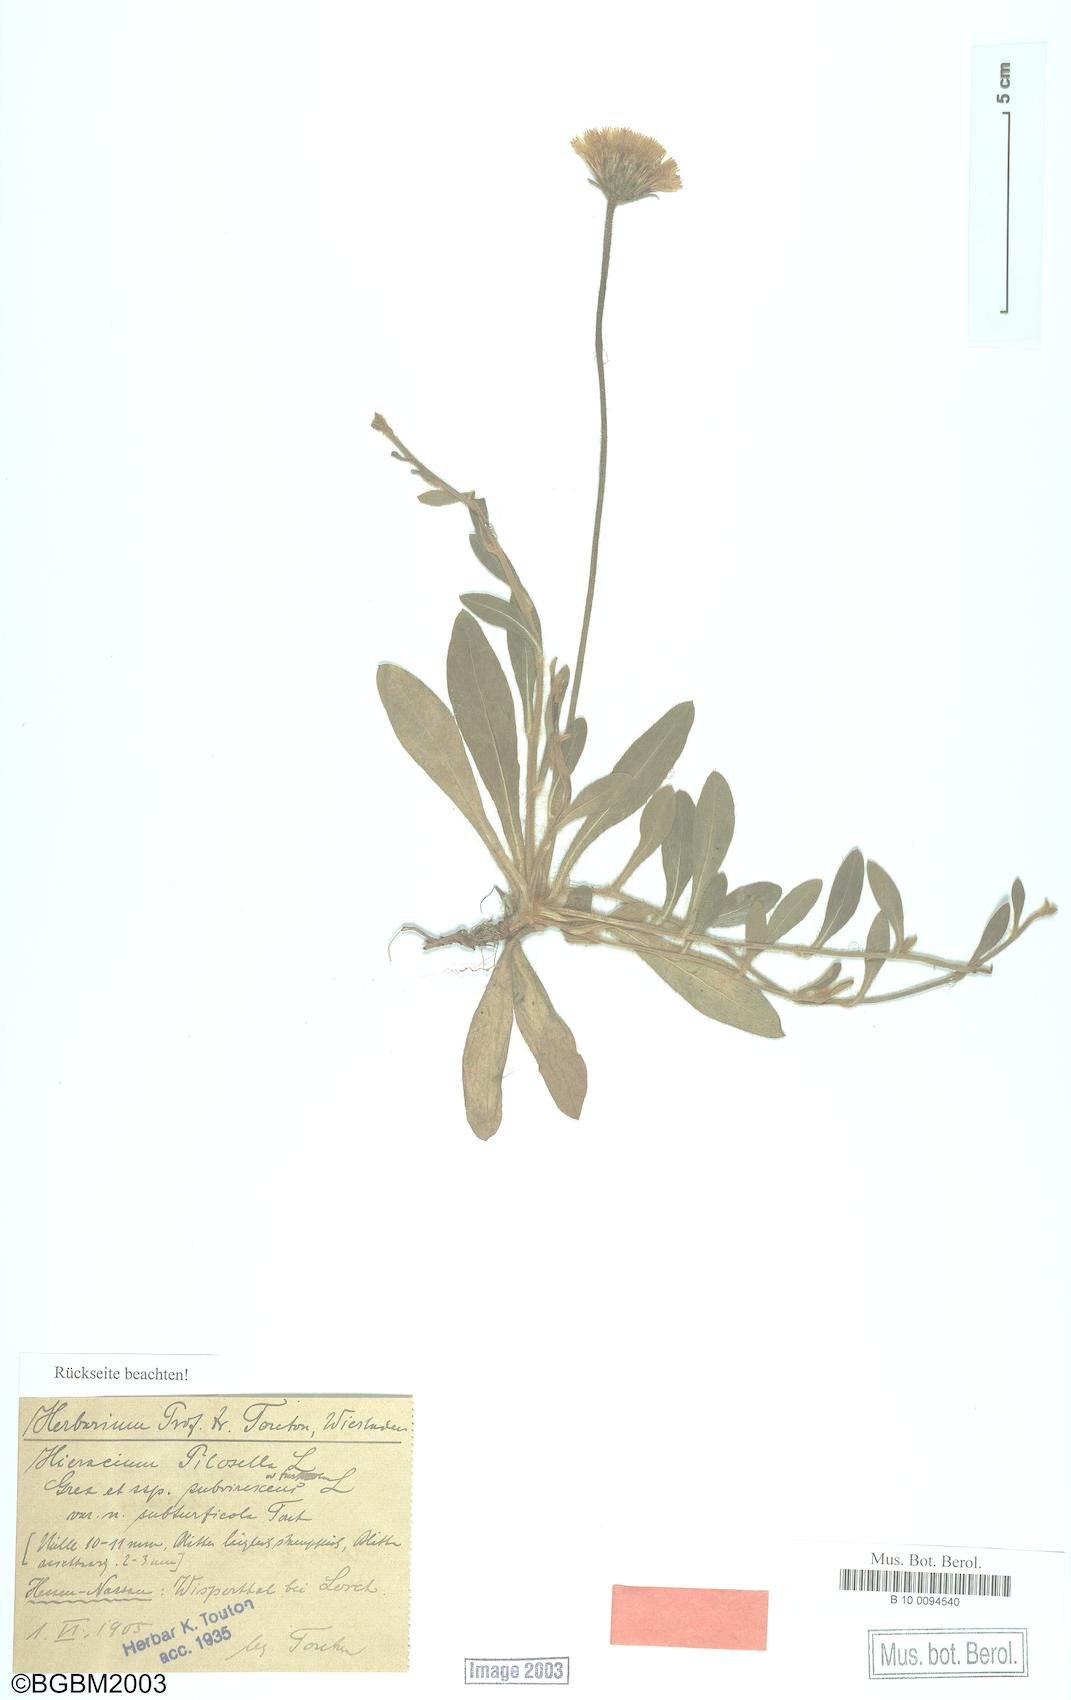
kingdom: Plantae
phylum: Tracheophyta
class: Magnoliopsida
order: Asterales
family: Asteraceae
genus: Pilosella
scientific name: Pilosella officinarum
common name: Mouse-ear hawkweed
